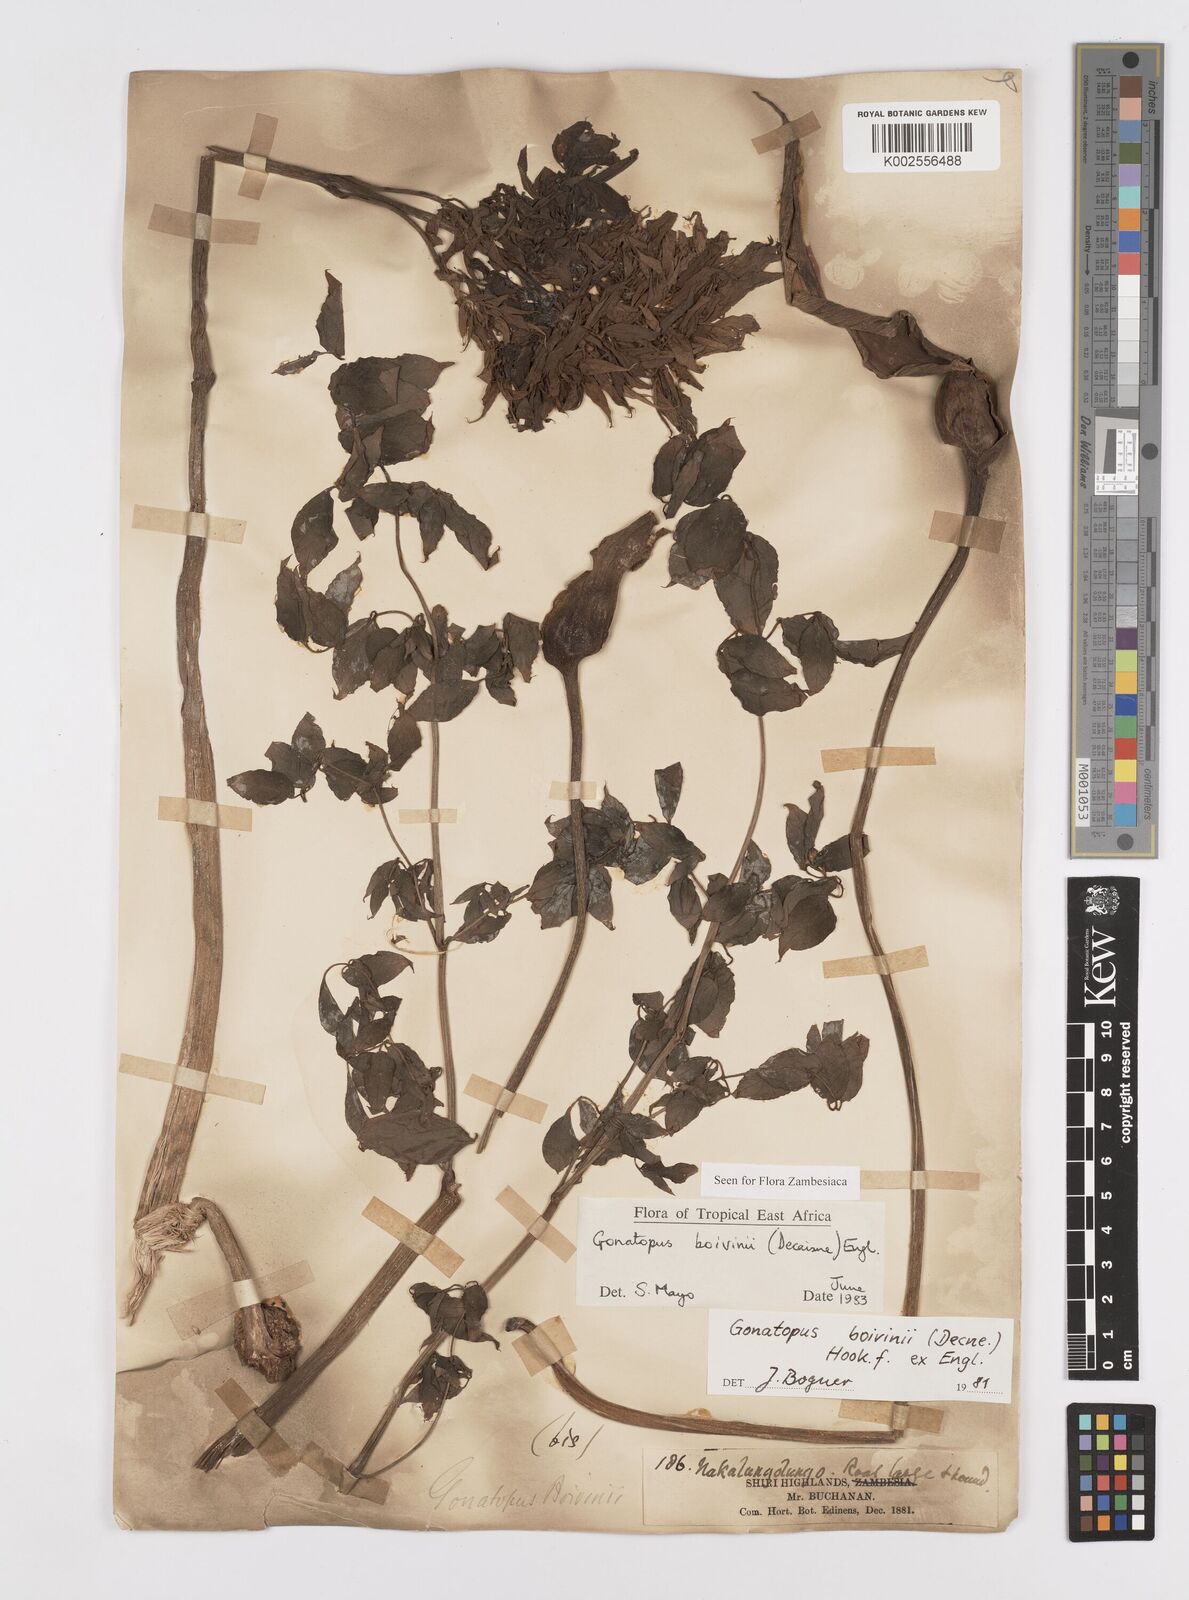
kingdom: Plantae
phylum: Tracheophyta
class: Liliopsida
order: Alismatales
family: Araceae
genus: Gonatopus
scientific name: Gonatopus boivinii
